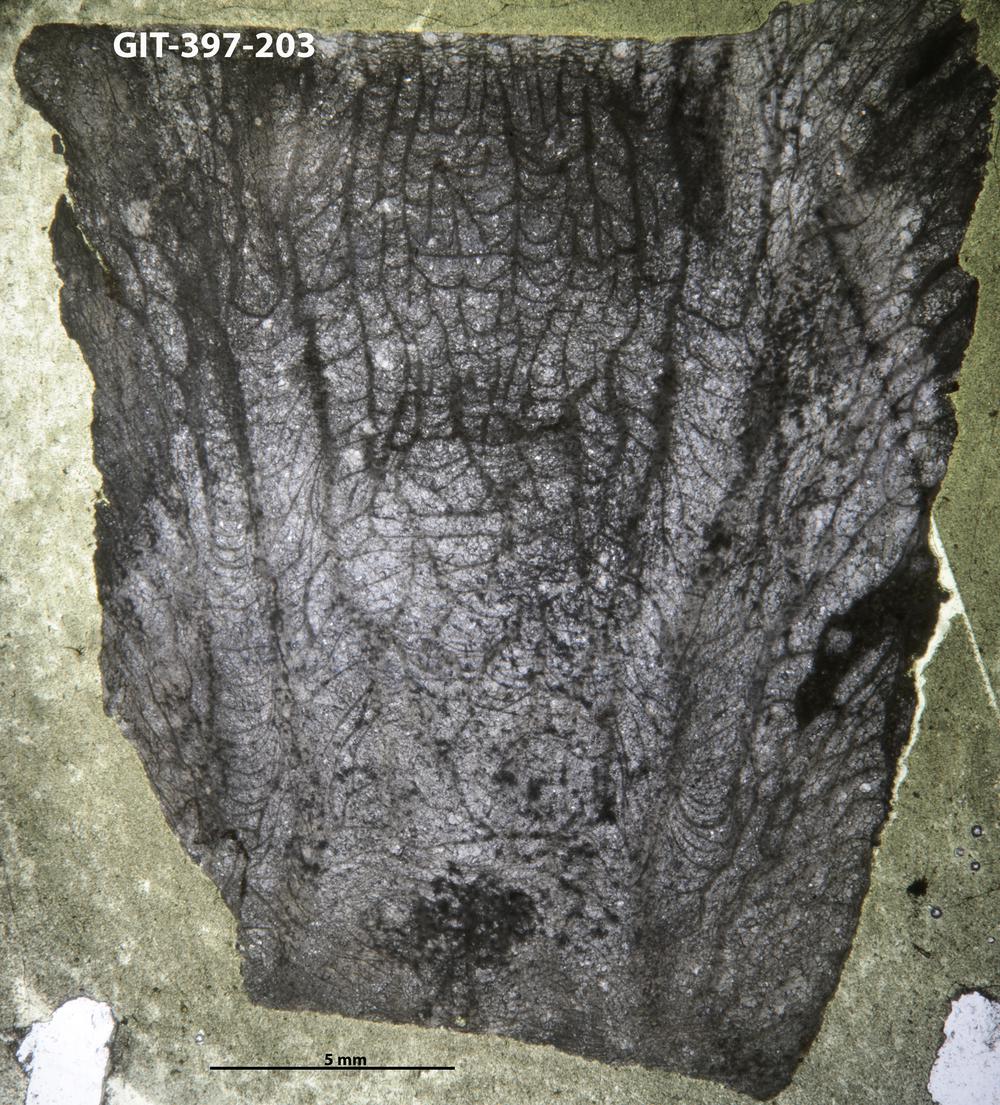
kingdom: Animalia
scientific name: Animalia
